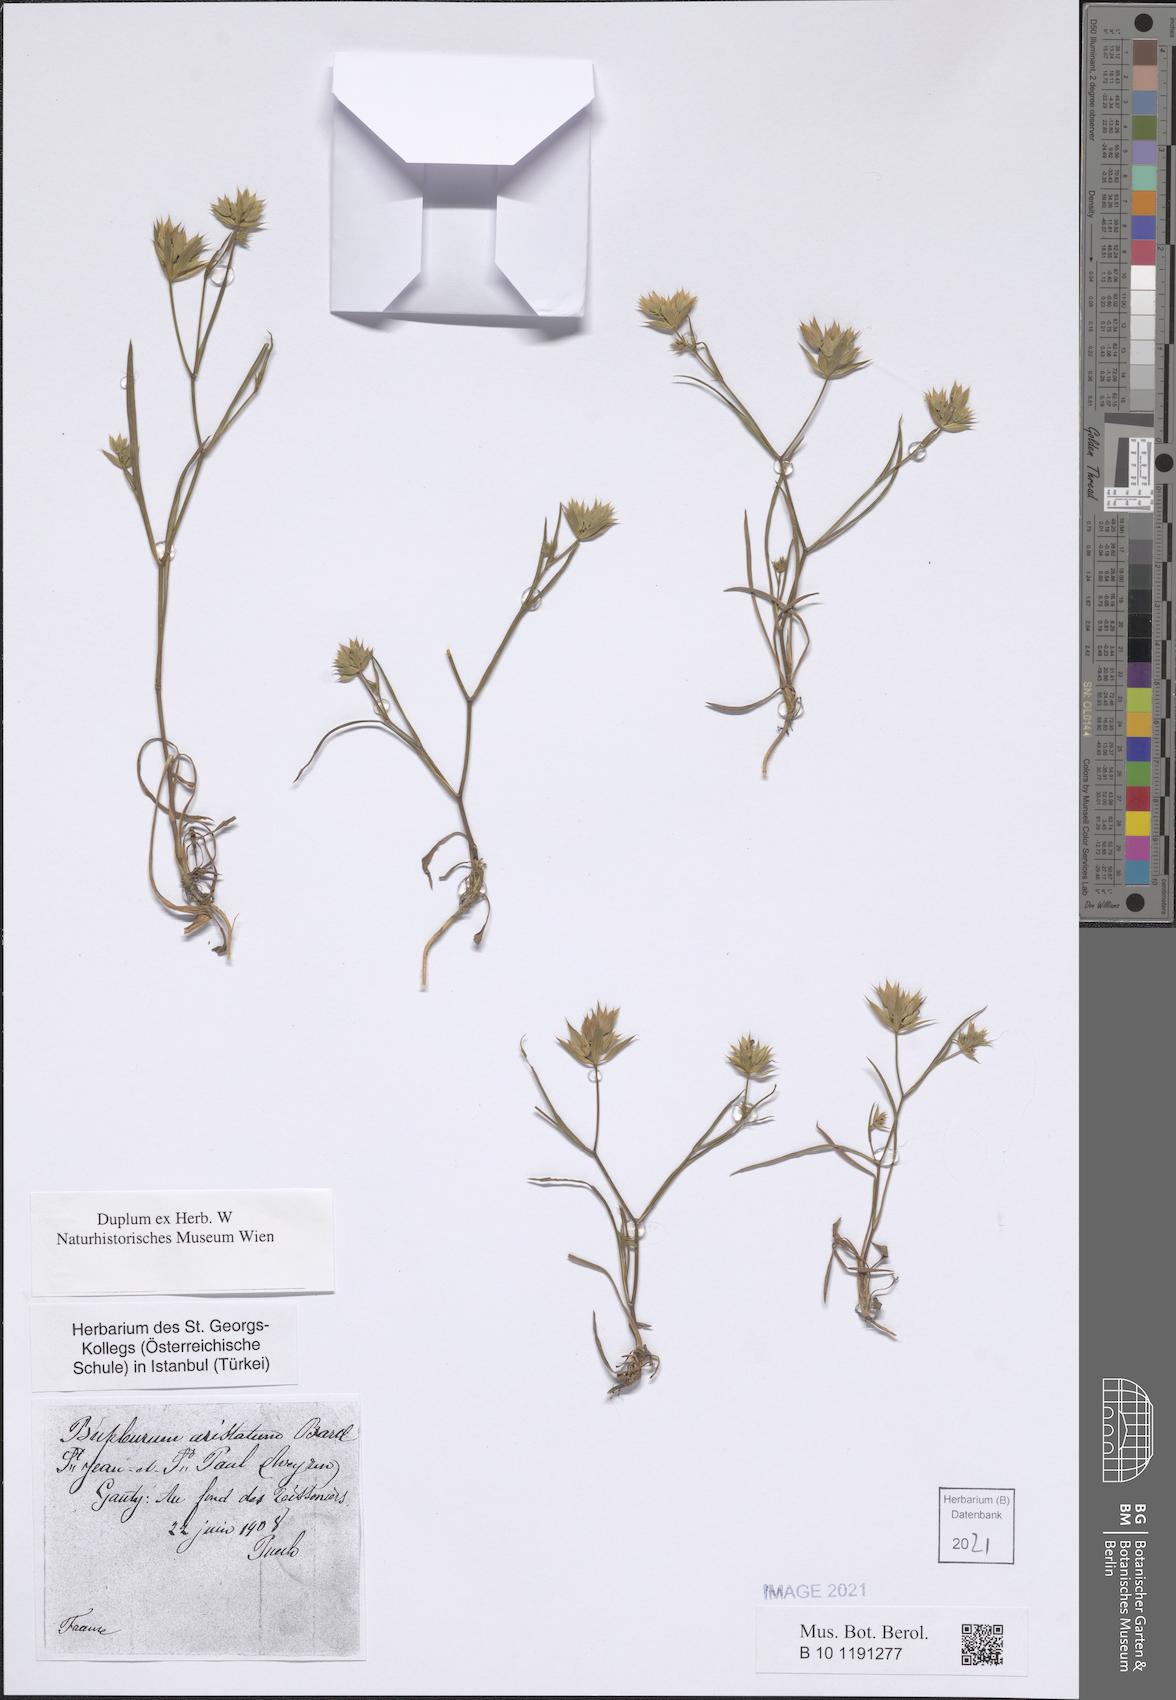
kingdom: Plantae
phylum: Tracheophyta
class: Magnoliopsida
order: Apiales
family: Apiaceae
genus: Bupleurum
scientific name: Bupleurum aristatum
